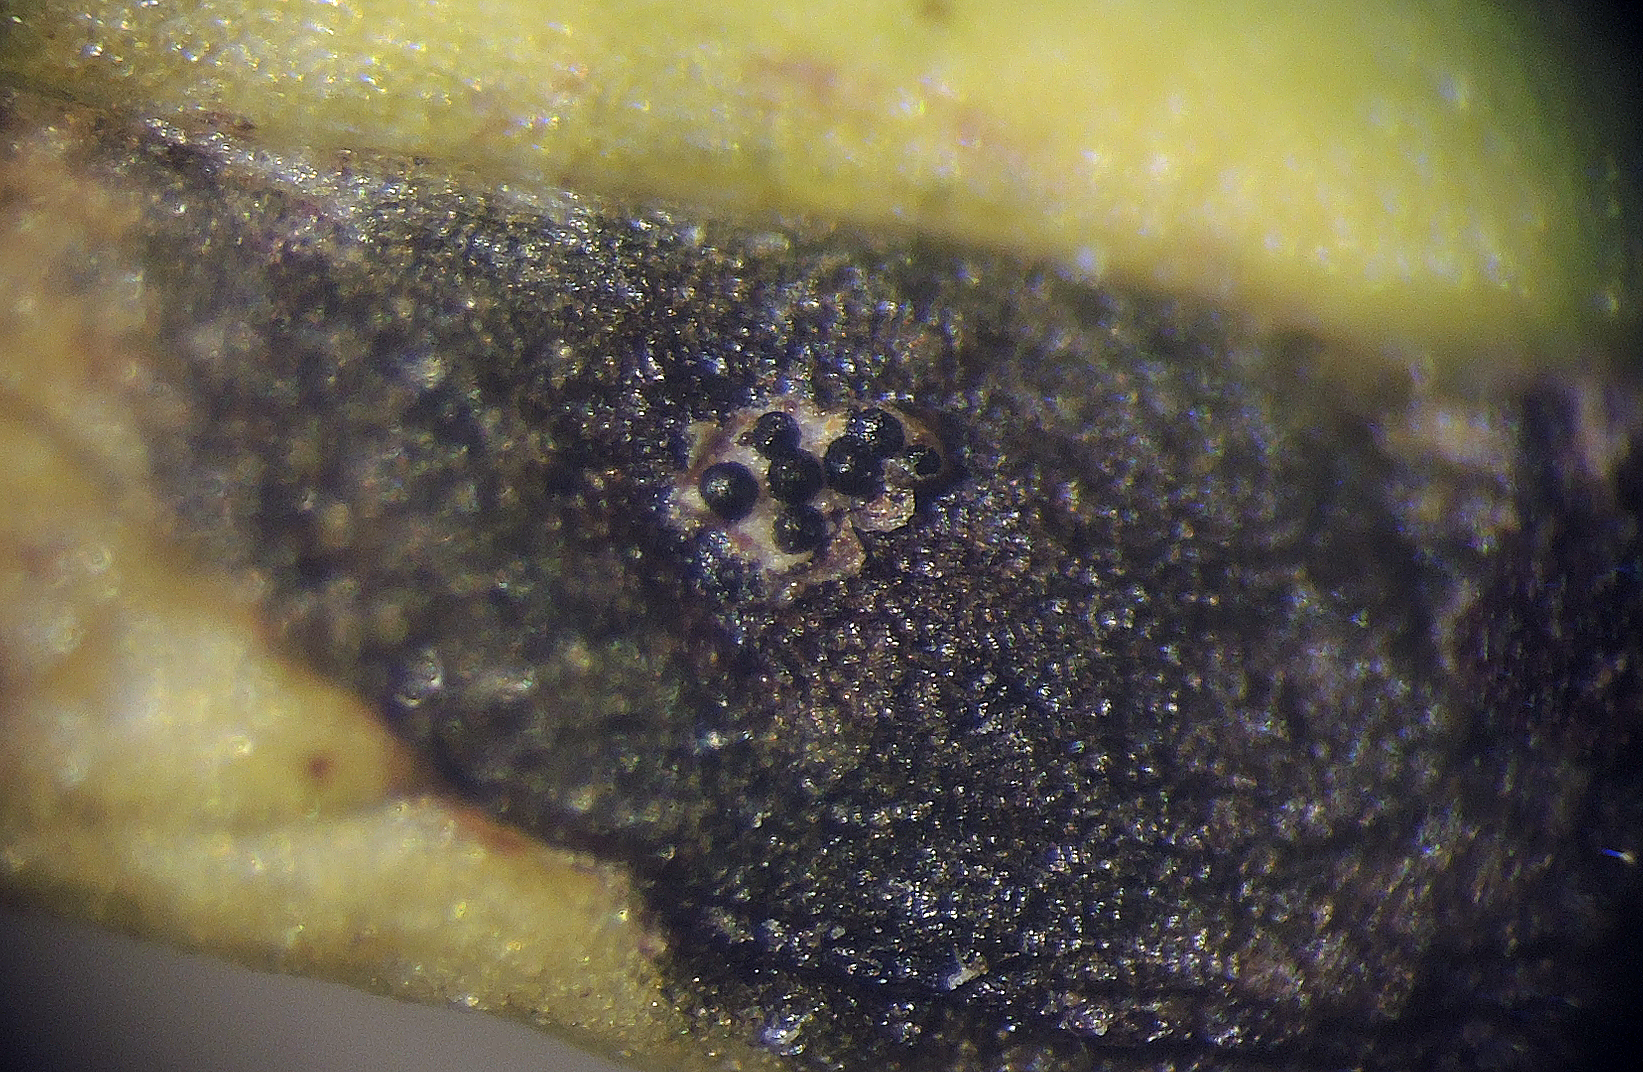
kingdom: Fungi
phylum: Ascomycota
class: Dothideomycetes
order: Pleosporales
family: Phaeosphaeriaceae
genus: Sphaerellopsis
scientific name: Sphaerellopsis filum
